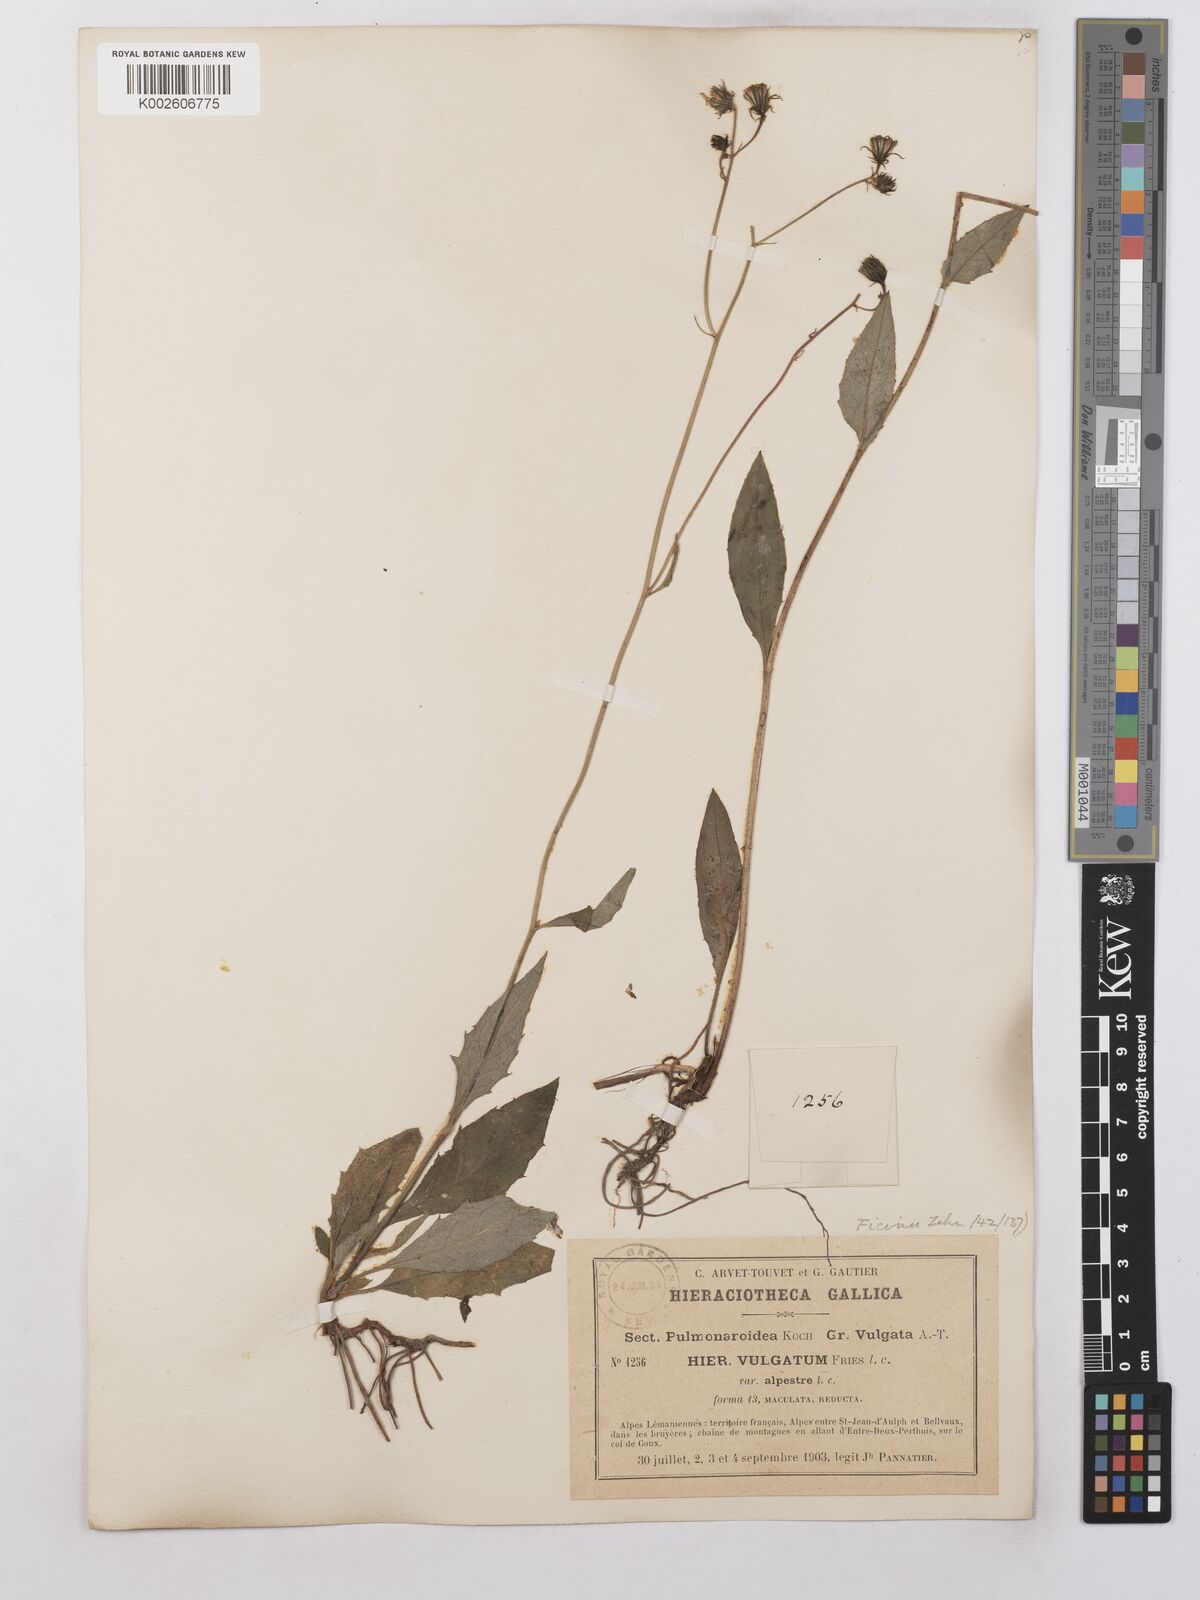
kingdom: Plantae
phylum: Tracheophyta
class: Magnoliopsida
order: Asterales
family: Asteraceae
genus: Hieracium
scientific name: Hieracium lachenalii
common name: Common hawkweed
